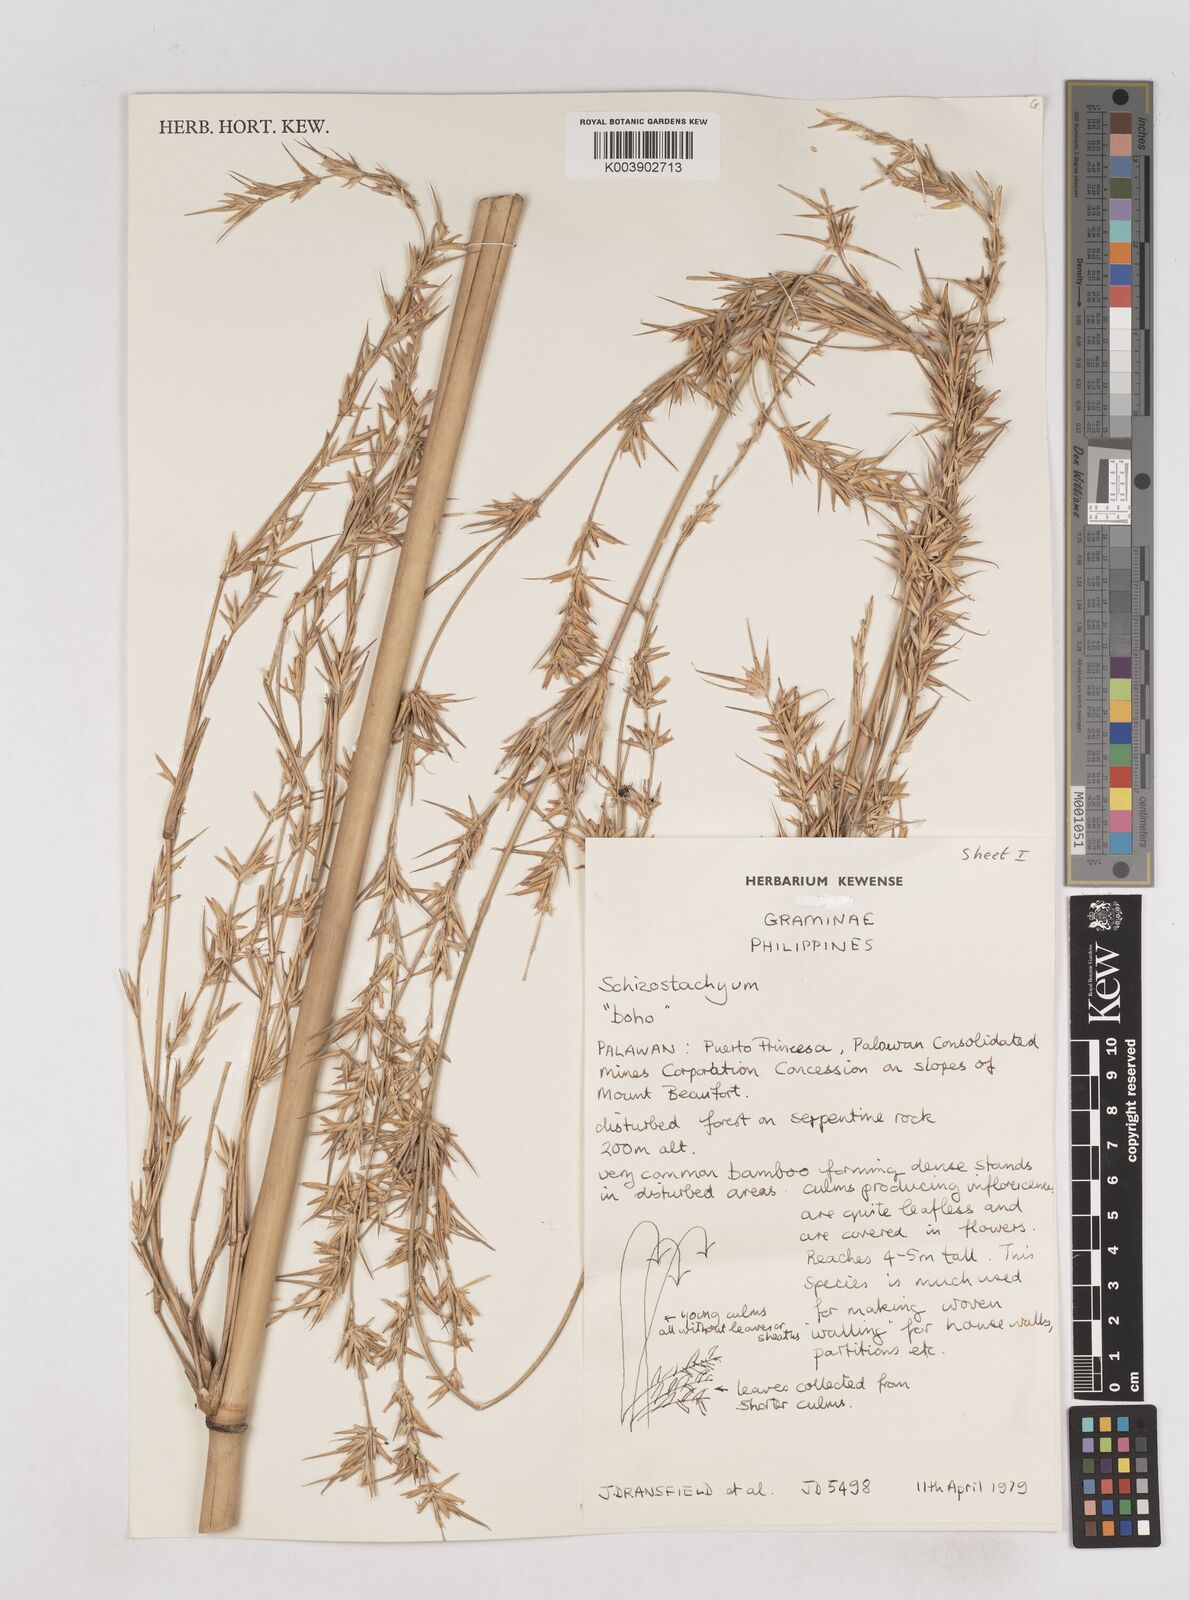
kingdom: Plantae
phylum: Tracheophyta
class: Liliopsida
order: Poales
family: Poaceae
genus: Schizostachyum
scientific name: Schizostachyum
